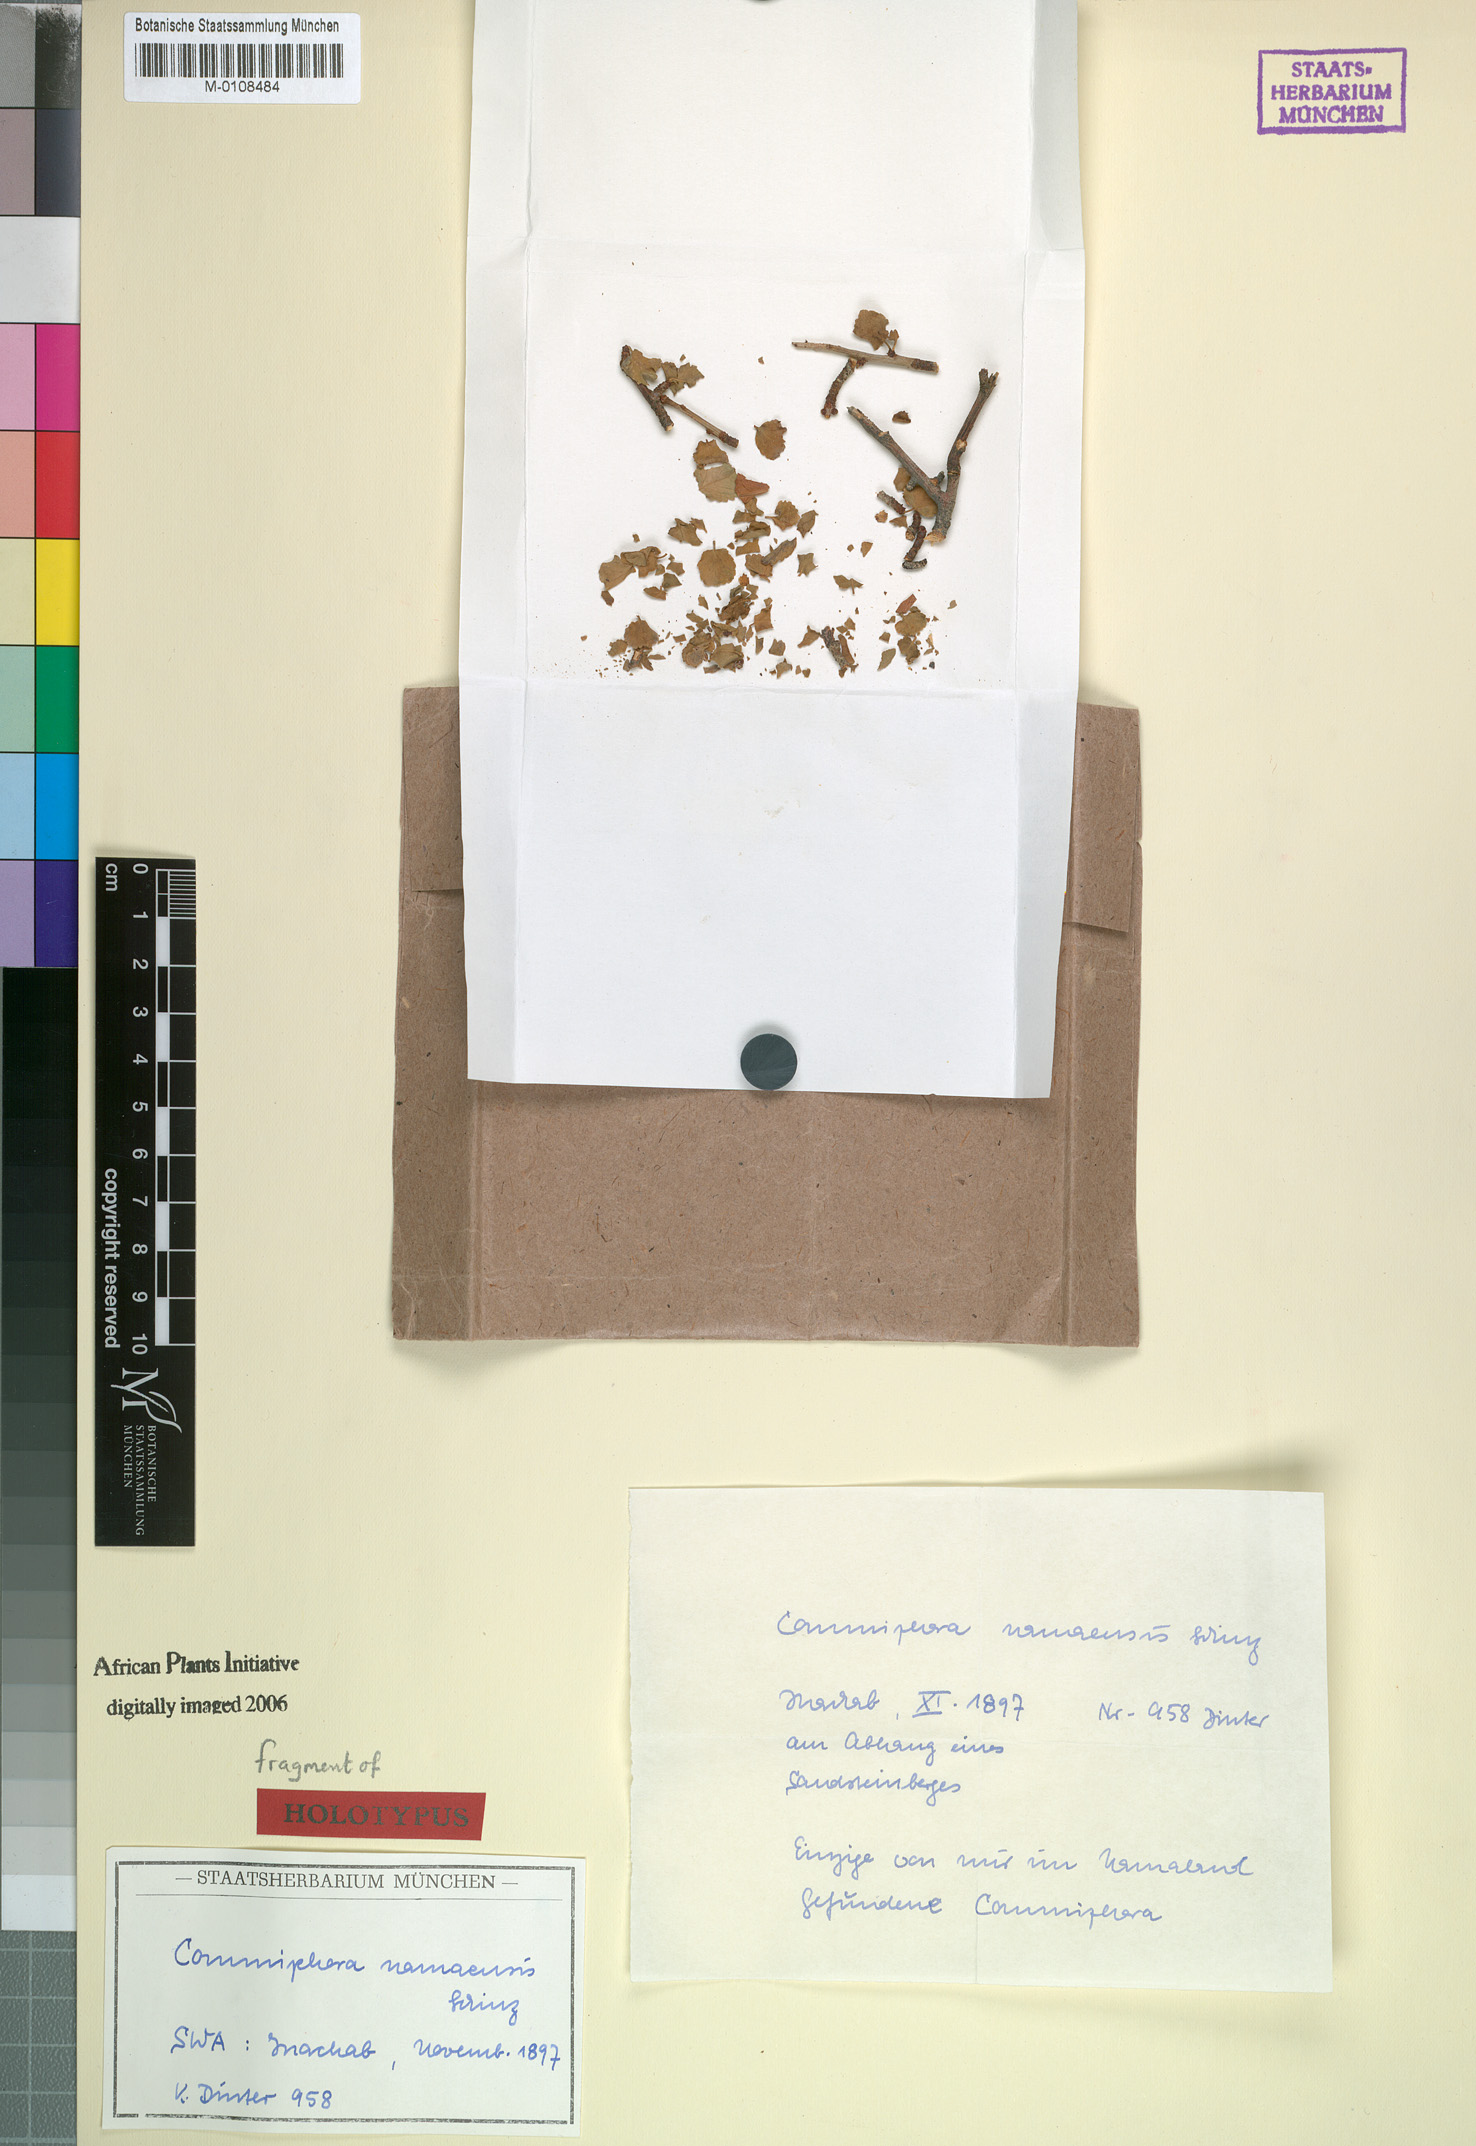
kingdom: Plantae
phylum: Tracheophyta
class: Magnoliopsida
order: Sapindales
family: Burseraceae
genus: Commiphora
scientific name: Commiphora namaensis
